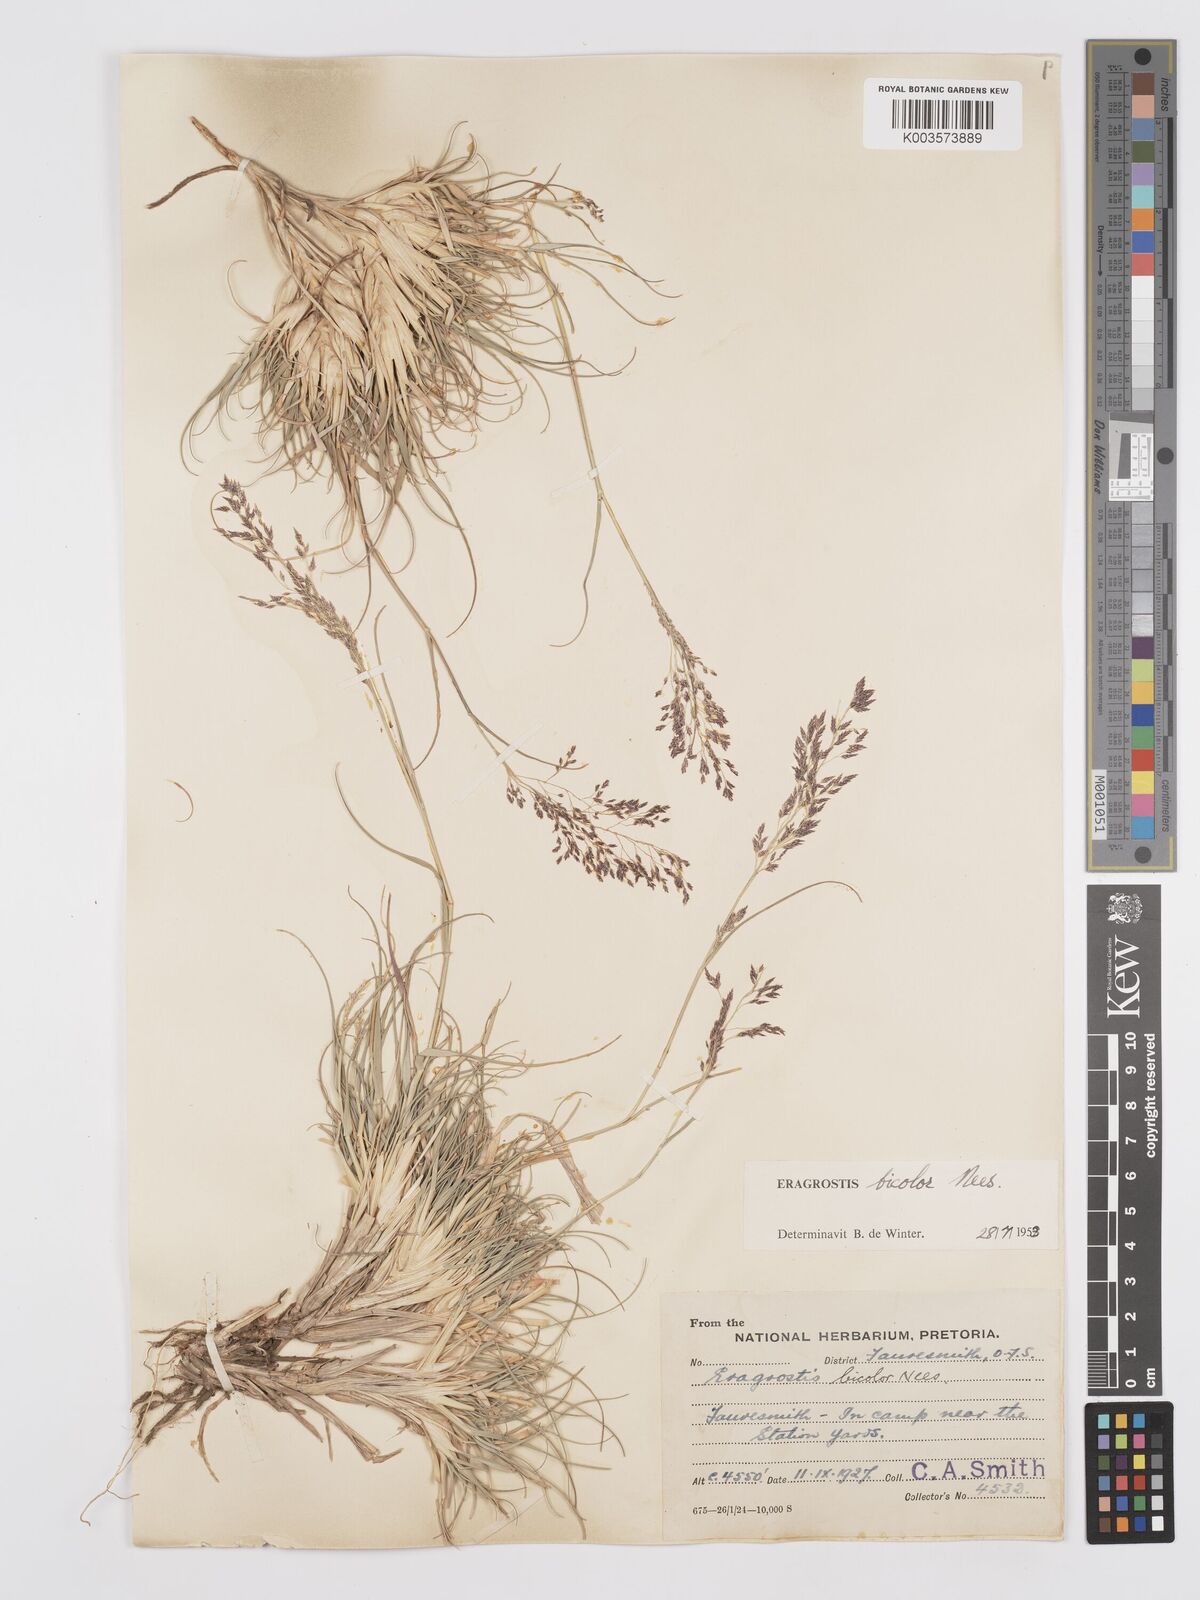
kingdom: Plantae
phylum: Tracheophyta
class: Liliopsida
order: Poales
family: Poaceae
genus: Eragrostis
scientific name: Eragrostis
